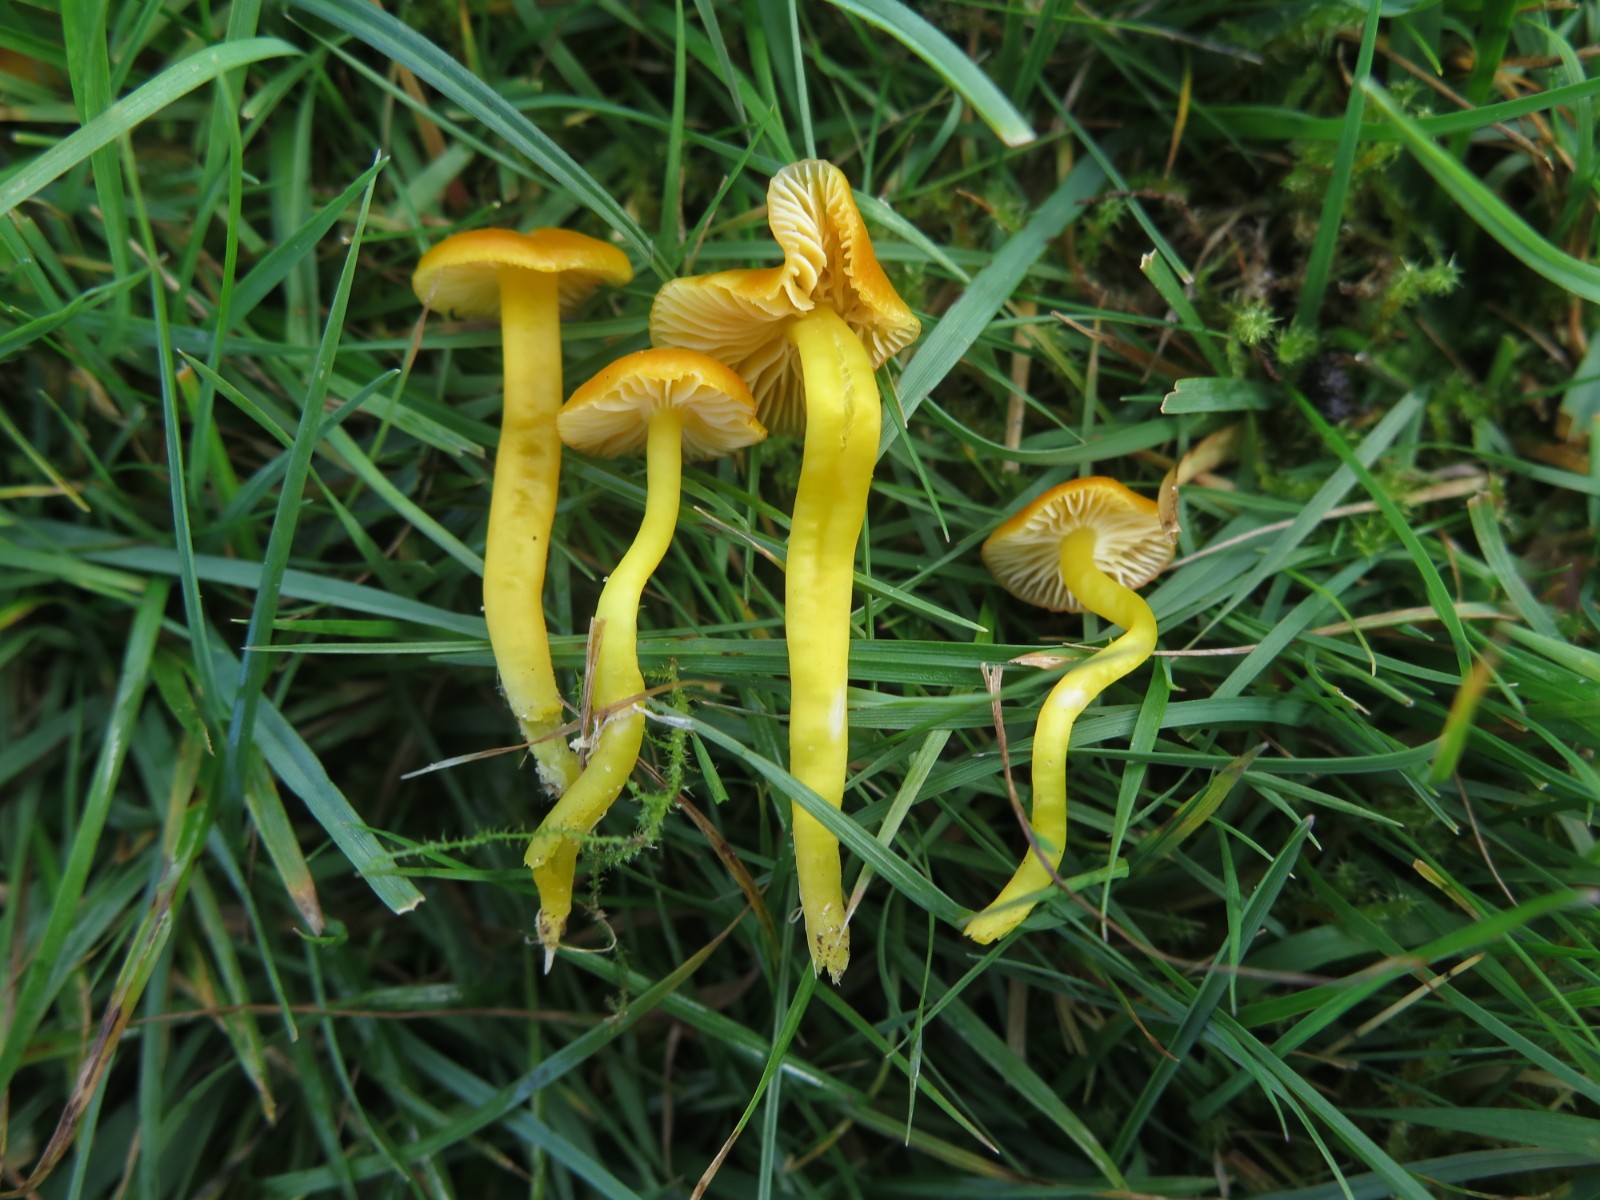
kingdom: Fungi
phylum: Basidiomycota
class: Agaricomycetes
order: Agaricales
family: Hygrophoraceae
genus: Hygrocybe
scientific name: Hygrocybe ceracea
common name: voksgul vokshat
